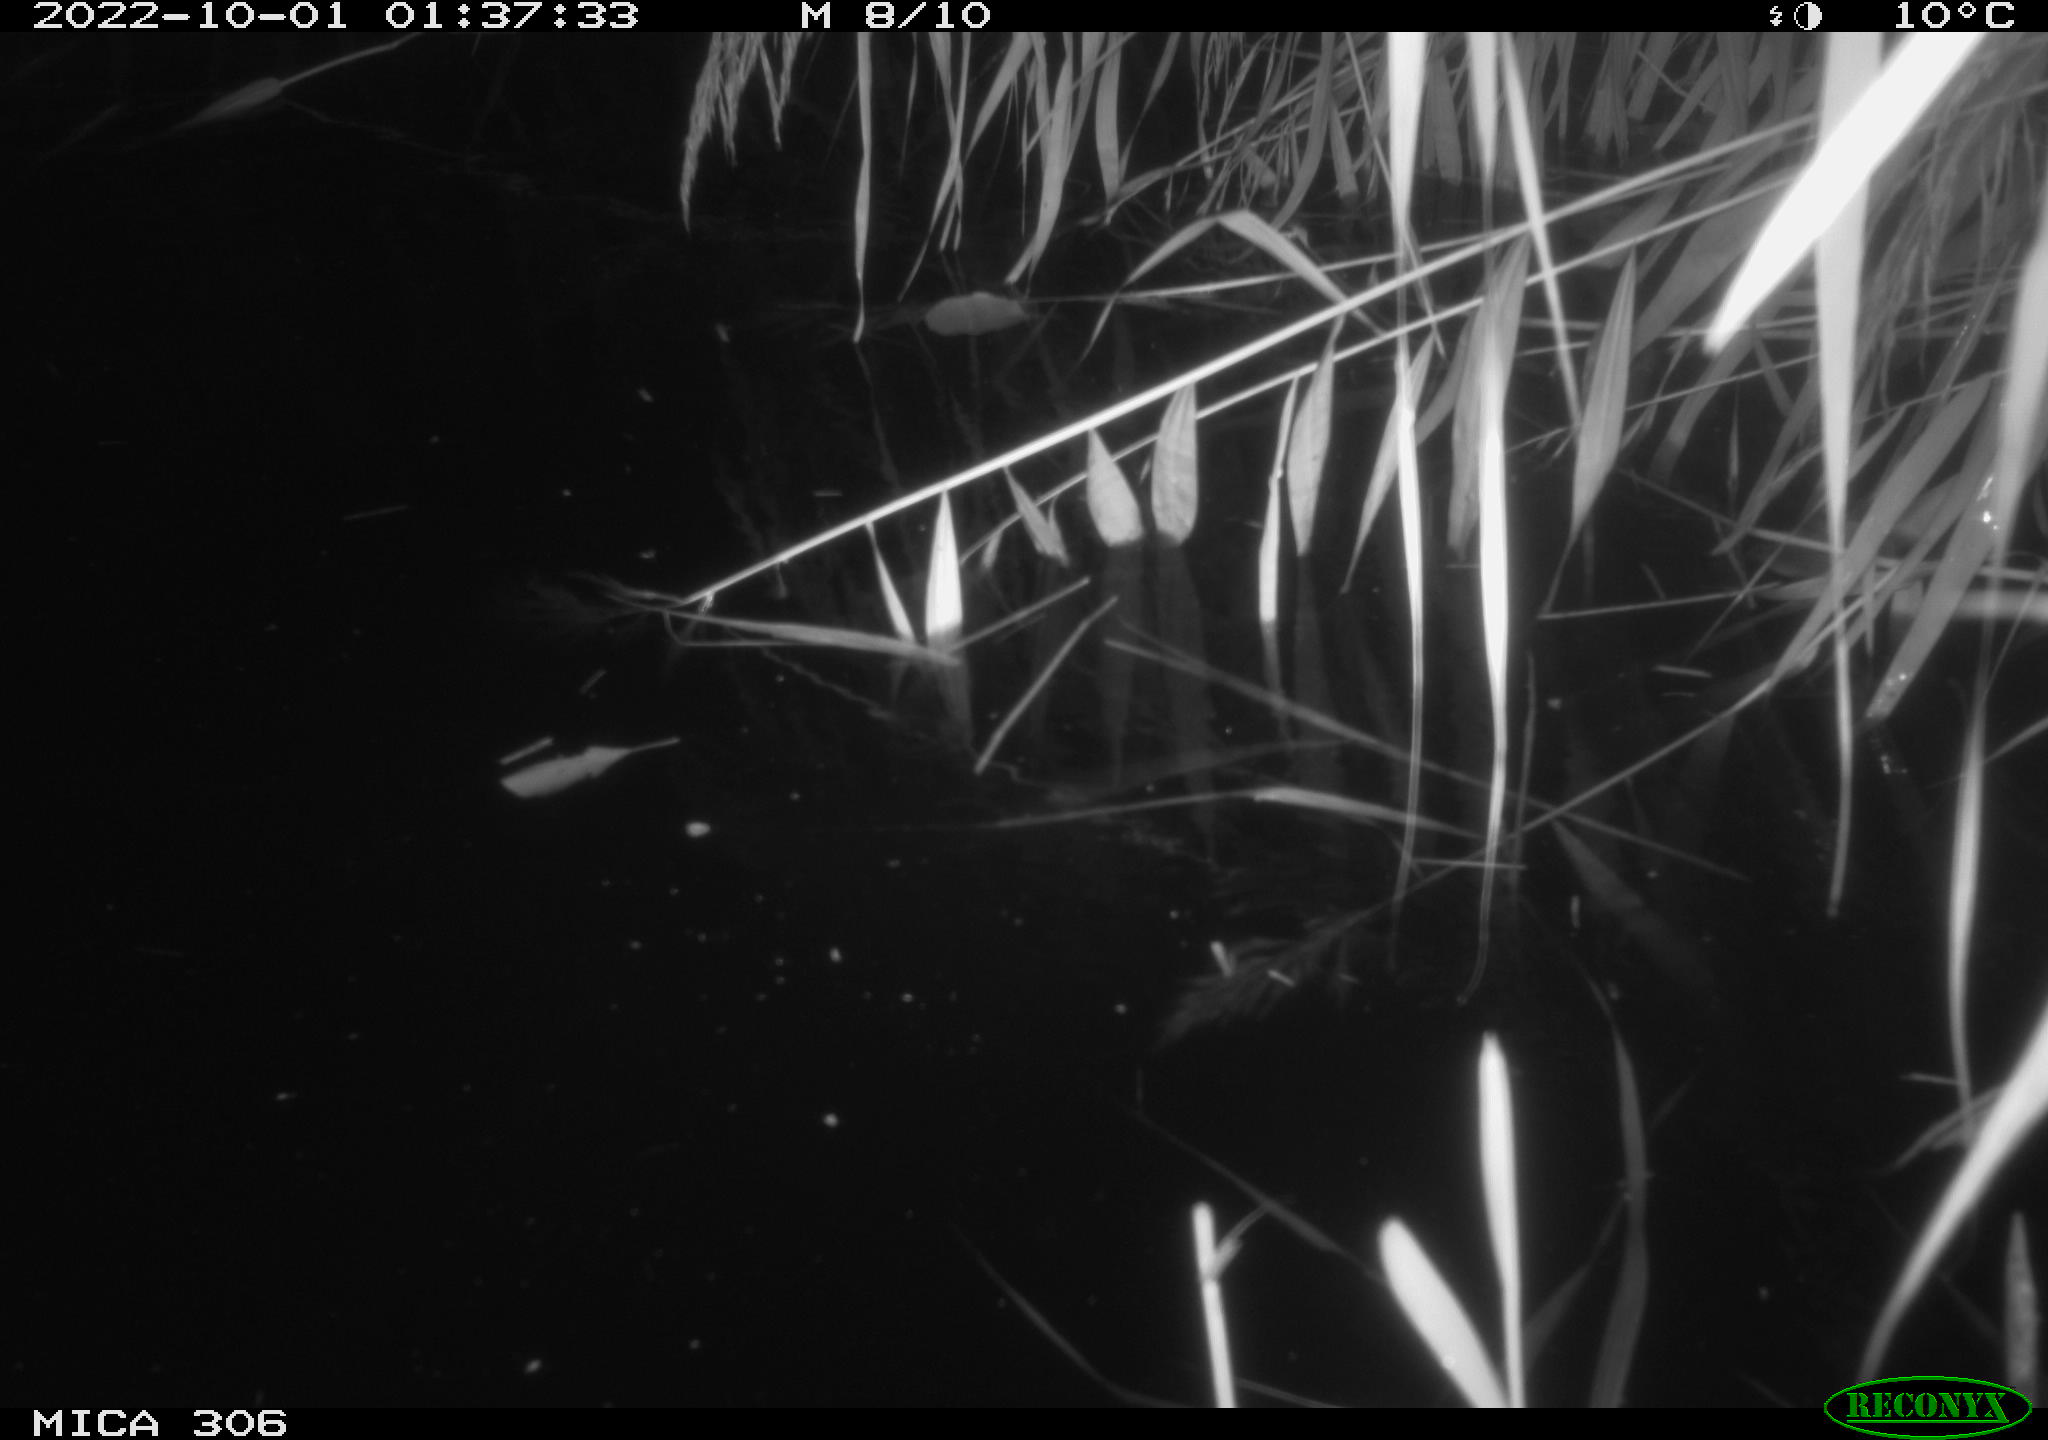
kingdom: Animalia
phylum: Chordata
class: Mammalia
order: Rodentia
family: Muridae
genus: Rattus
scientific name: Rattus norvegicus
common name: Brown rat
